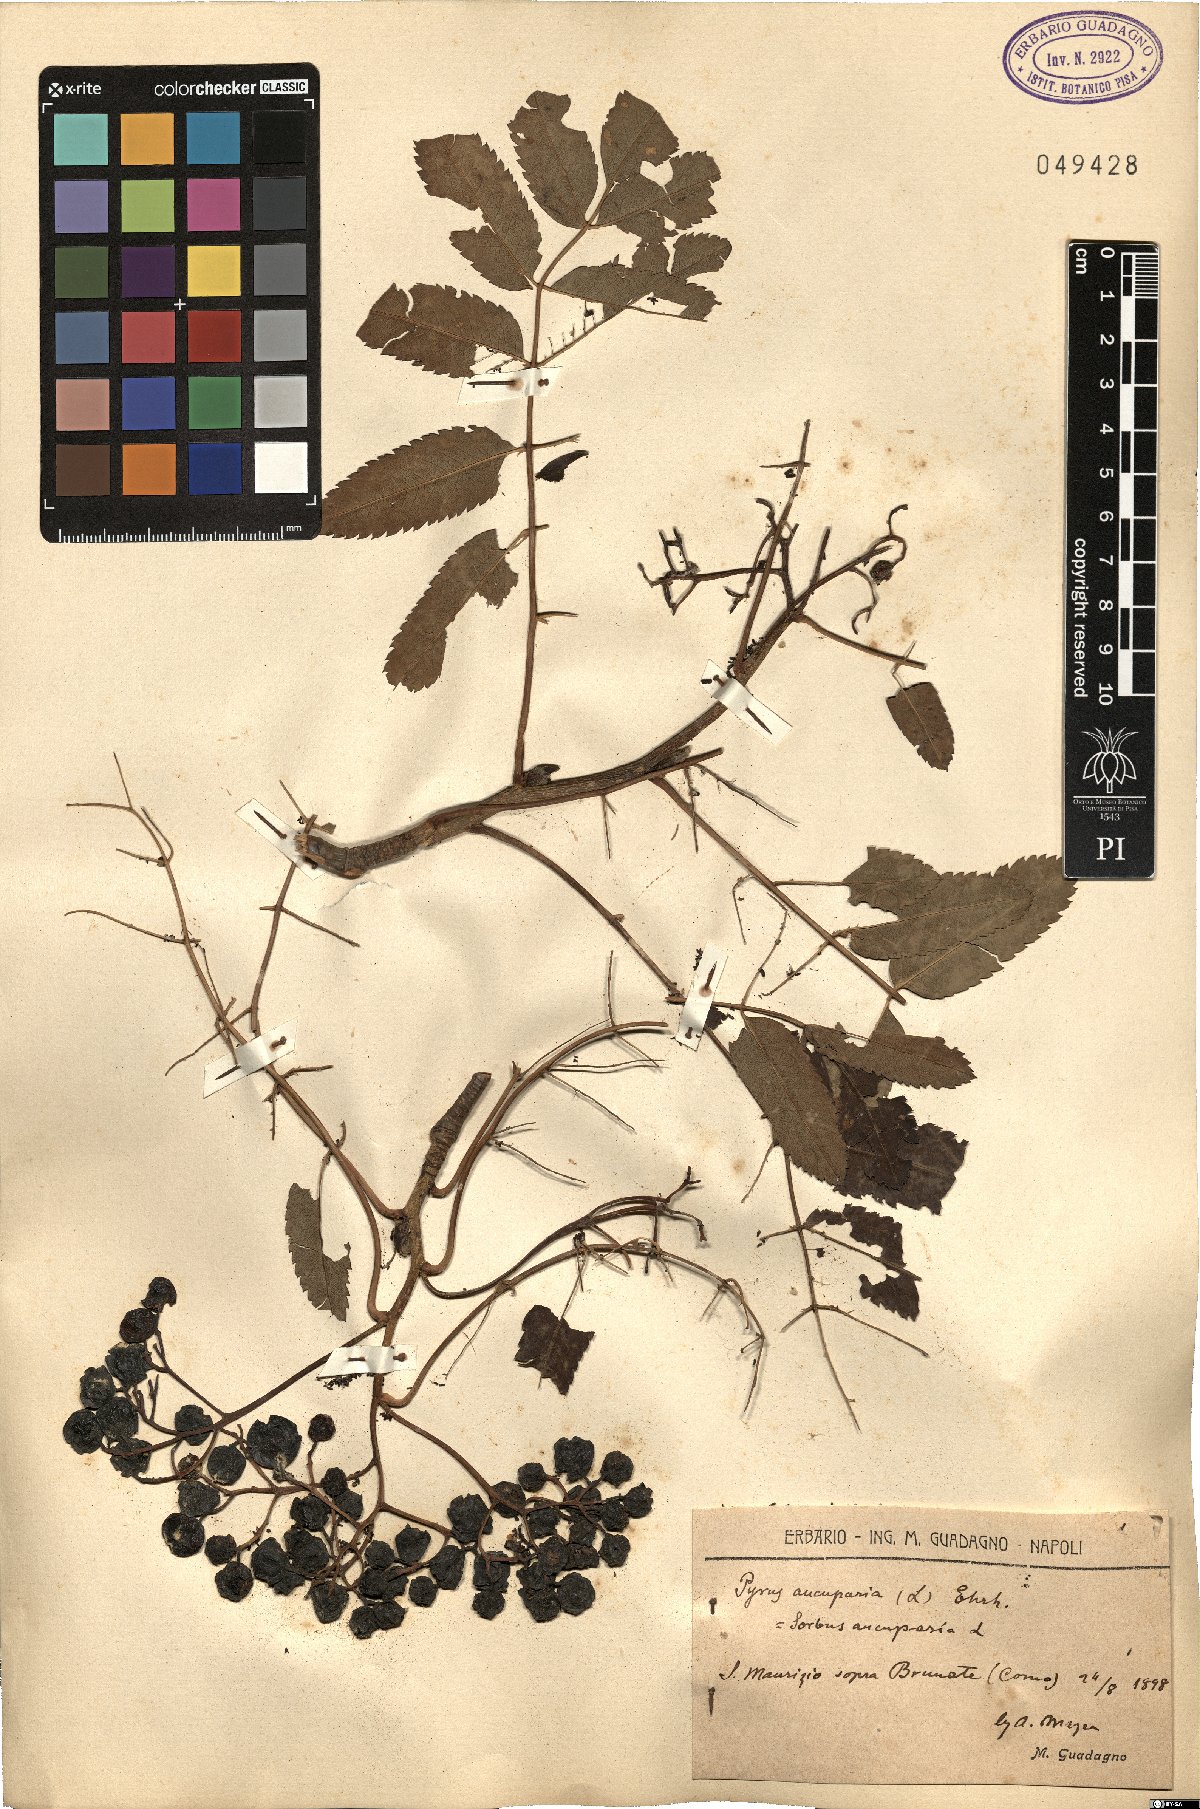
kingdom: Plantae
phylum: Tracheophyta
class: Magnoliopsida
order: Rosales
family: Rosaceae
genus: Sorbus
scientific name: Sorbus aucuparia
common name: Rowan
